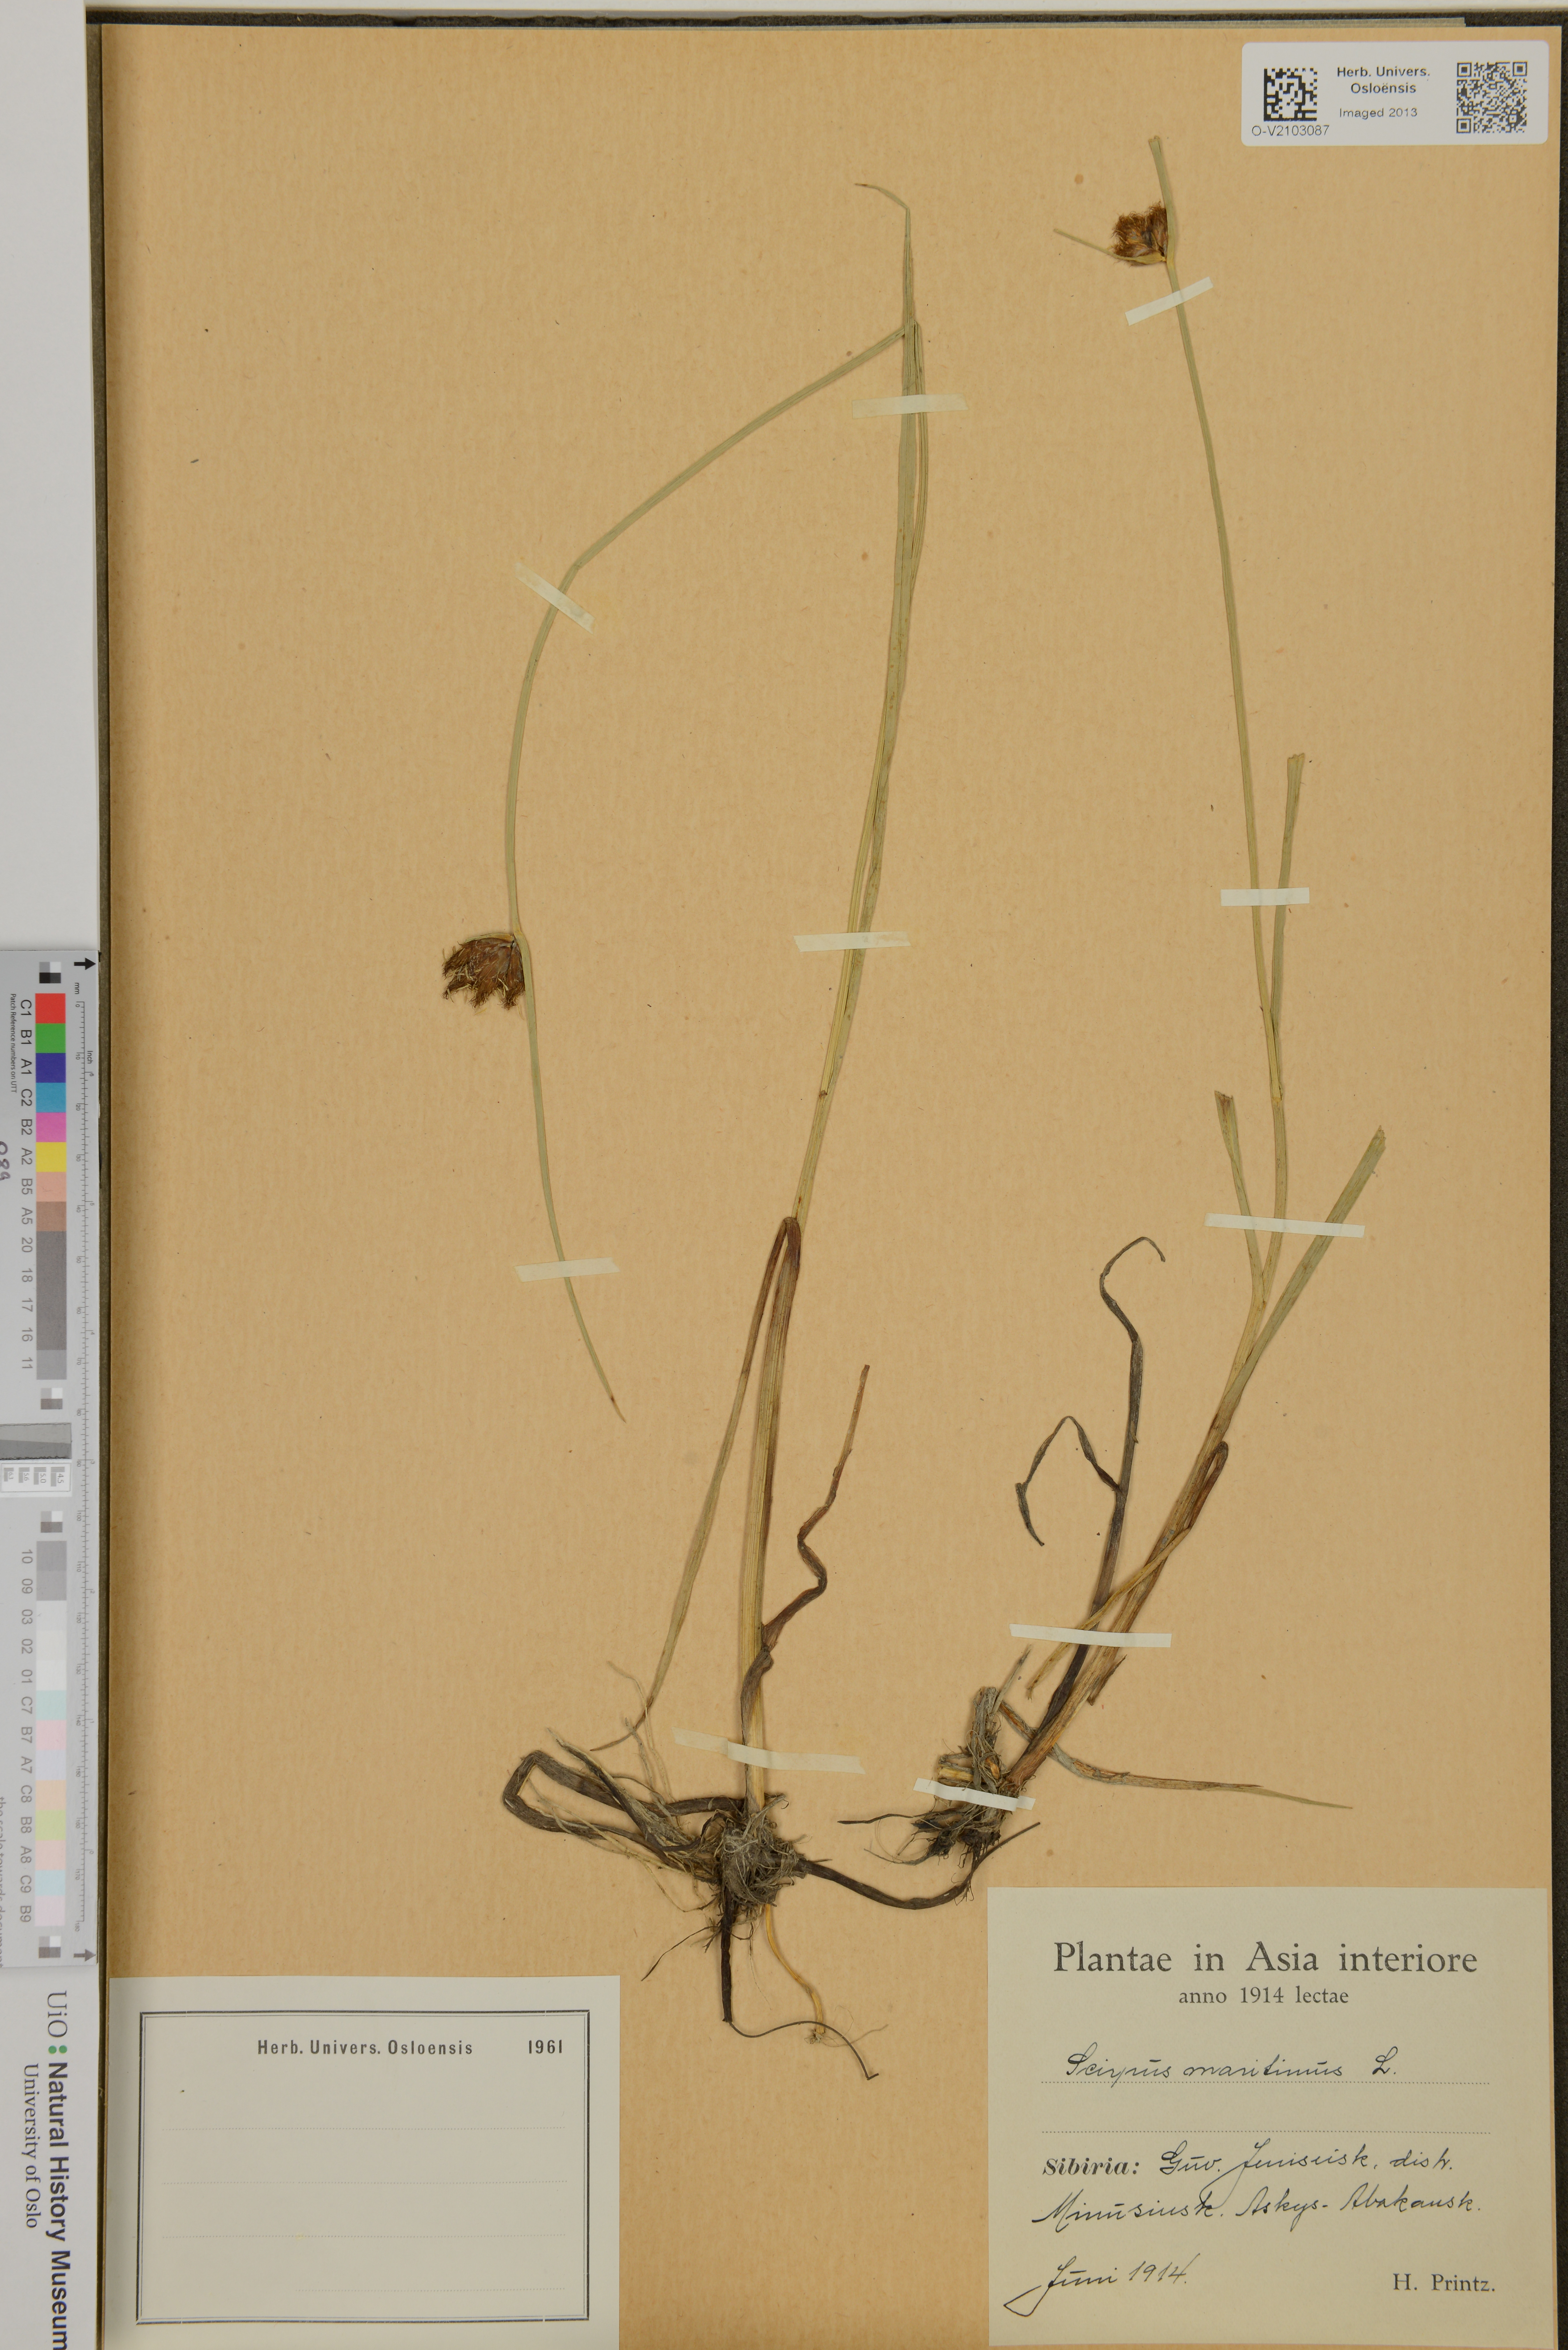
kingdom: Plantae
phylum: Tracheophyta
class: Liliopsida
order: Poales
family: Cyperaceae
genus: Bolboschoenus
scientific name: Bolboschoenus maritimus
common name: Sea club-rush
